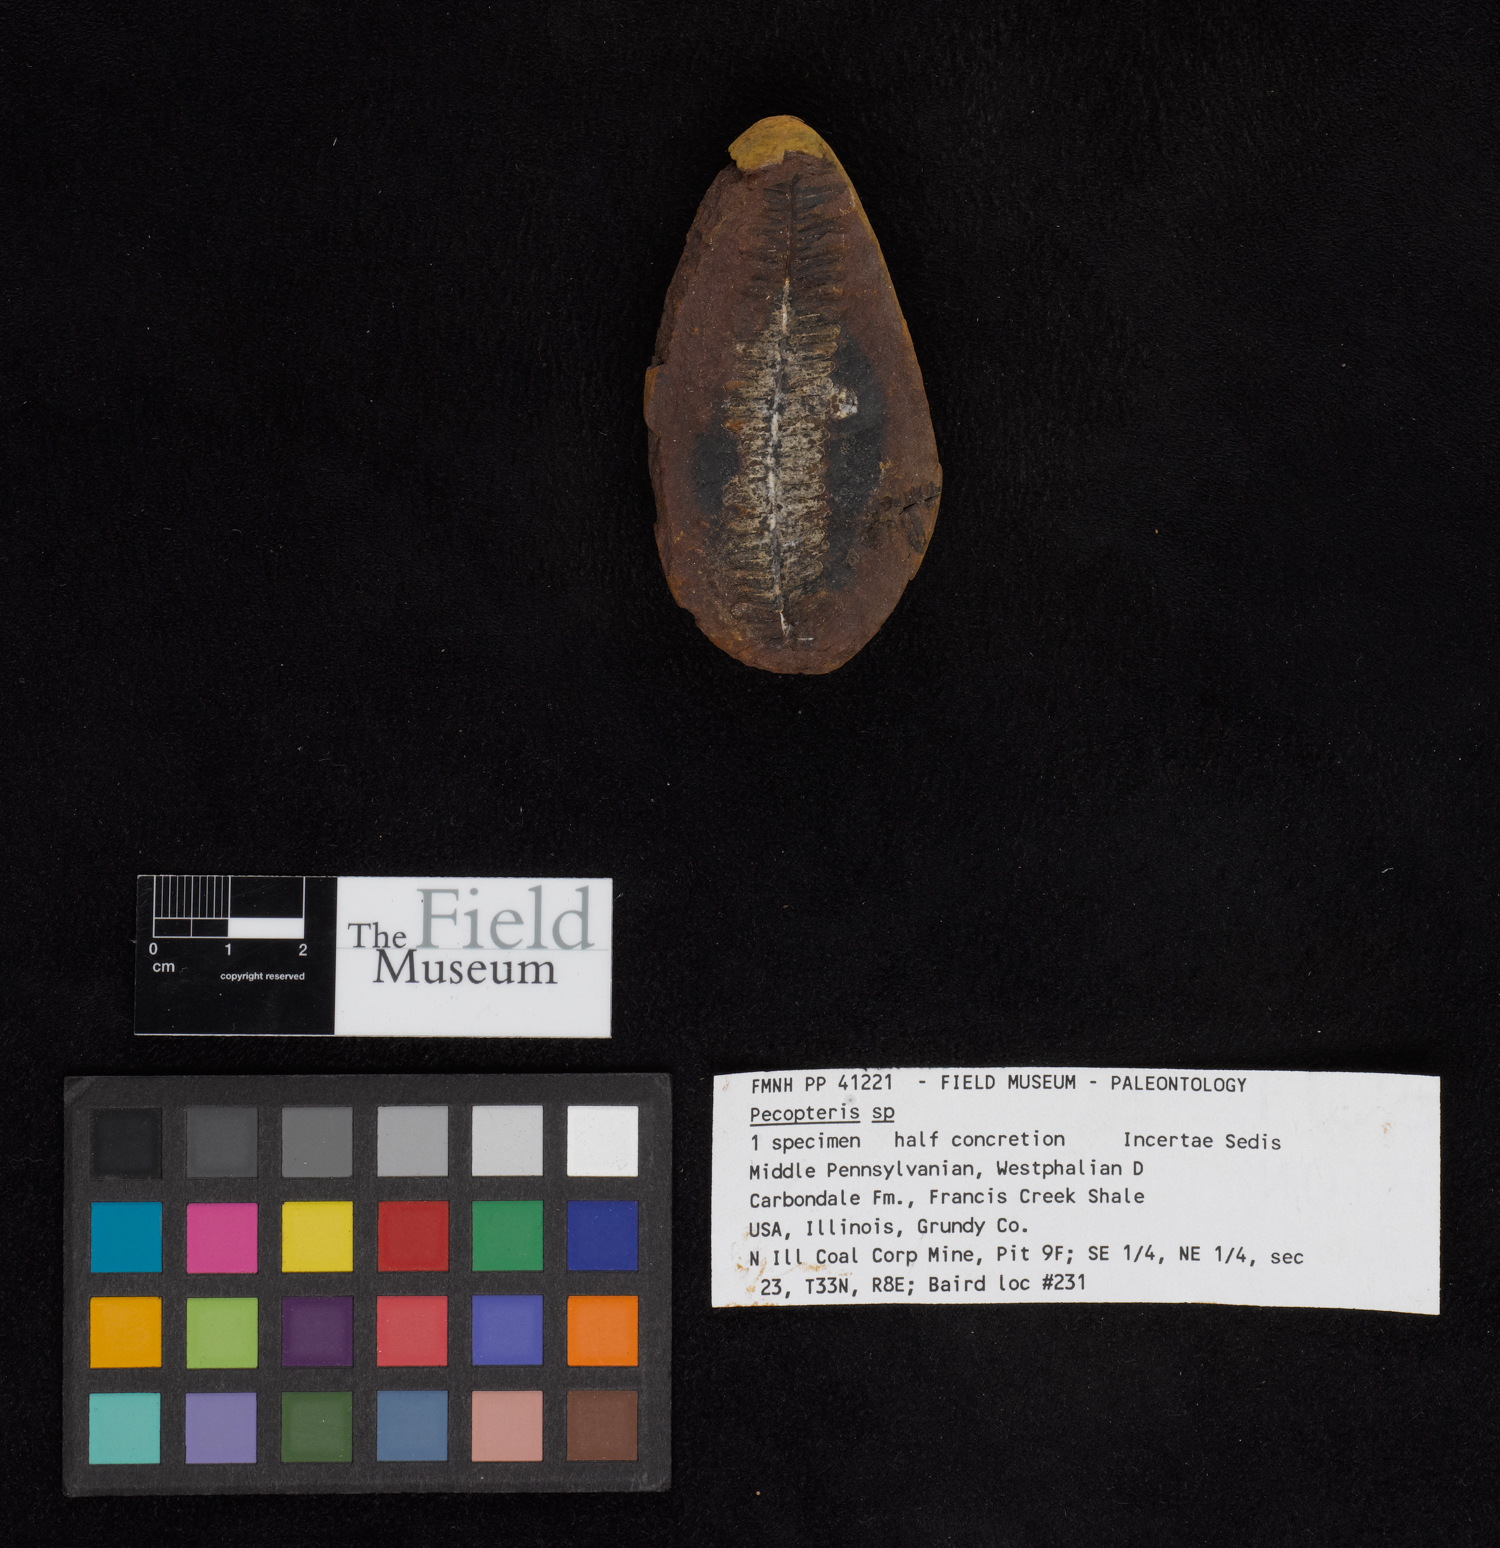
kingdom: Plantae
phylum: Tracheophyta
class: Polypodiopsida
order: Marattiales
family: Asterothecaceae
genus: Pecopteris
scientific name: Pecopteris
